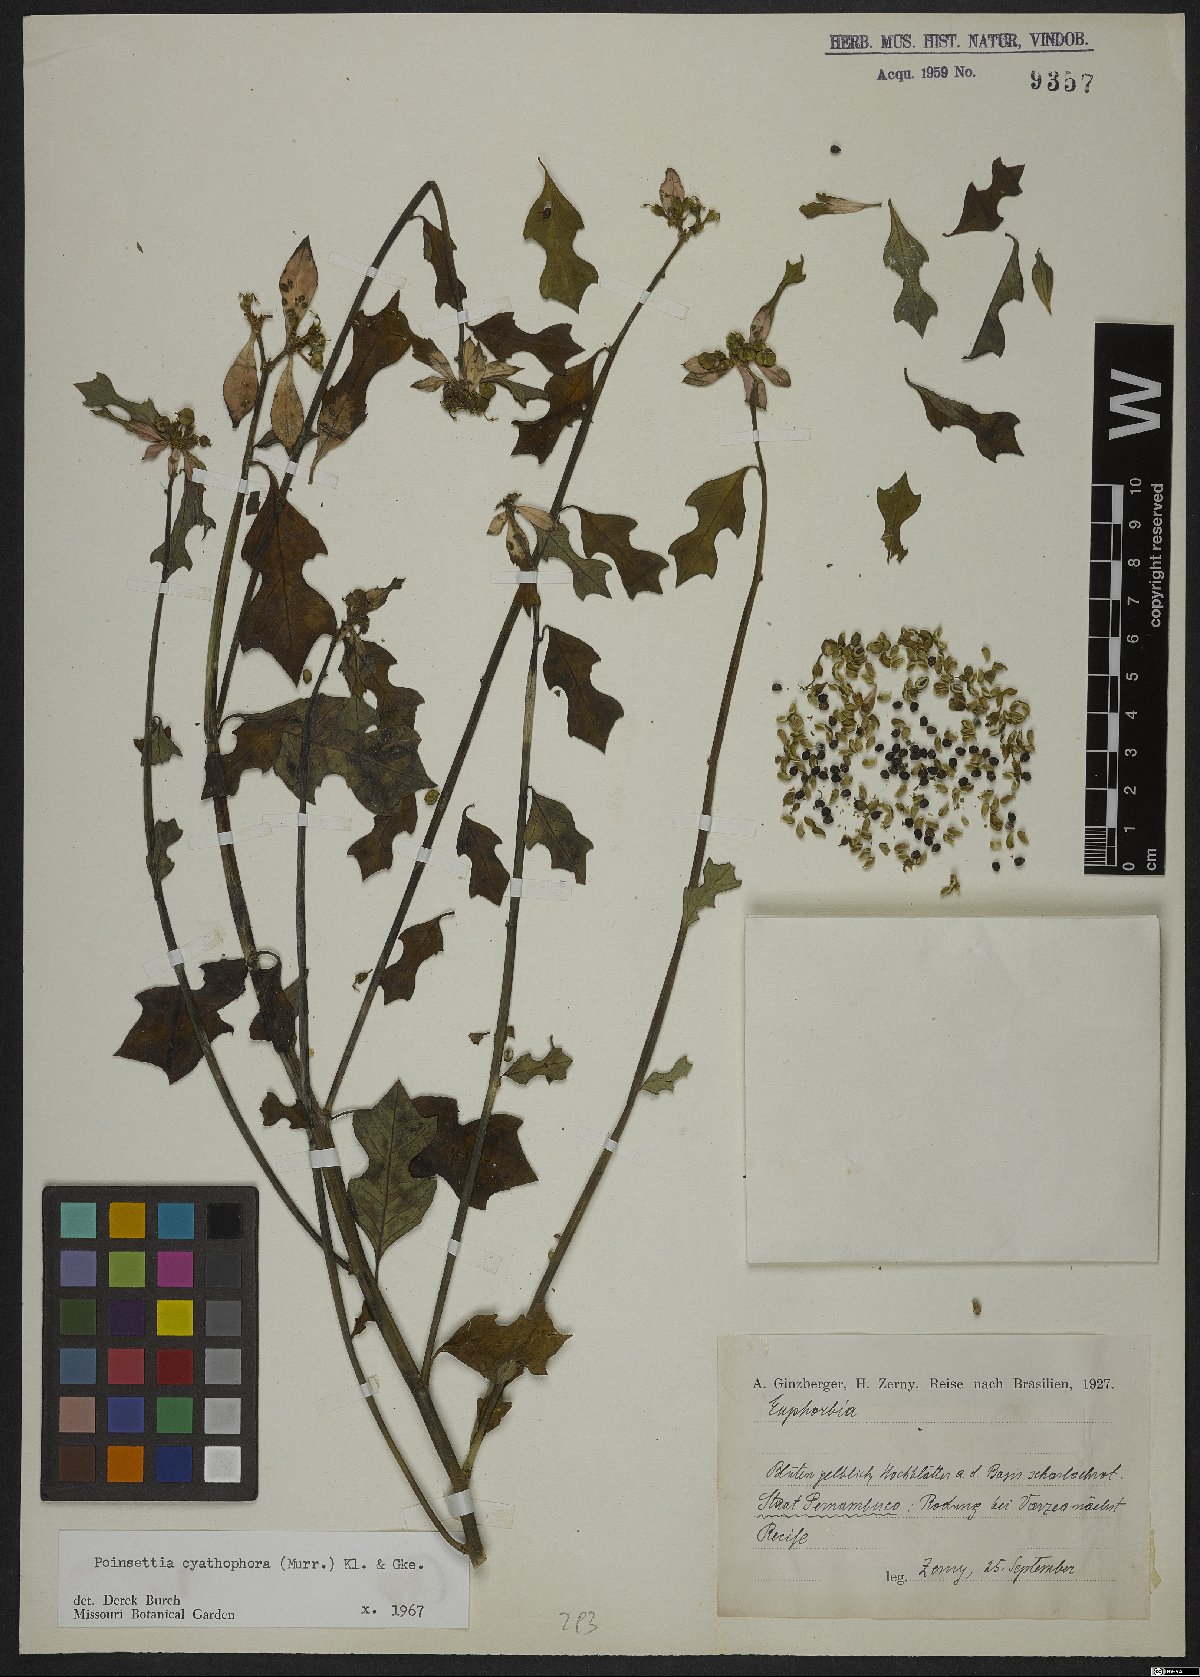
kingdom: Plantae
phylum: Tracheophyta
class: Magnoliopsida
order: Malpighiales
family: Euphorbiaceae
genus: Euphorbia
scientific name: Euphorbia heterophylla
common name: Mexican fireplant
